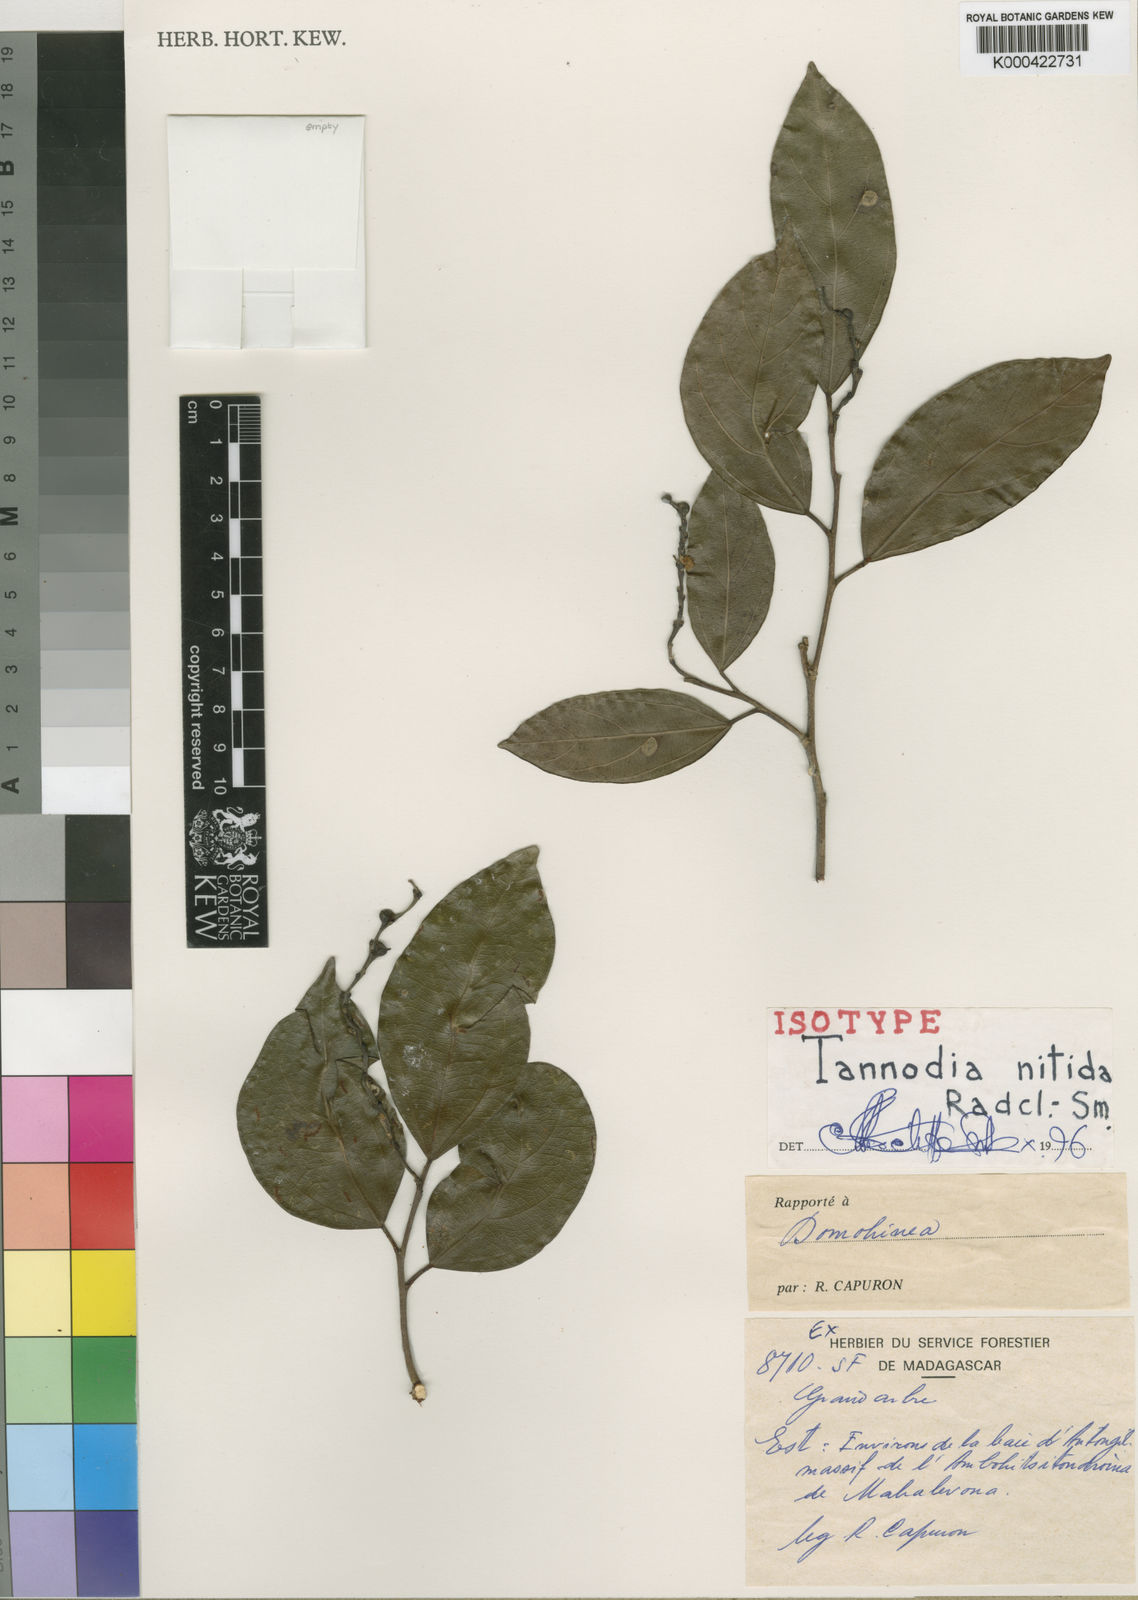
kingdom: Plantae
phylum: Tracheophyta
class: Magnoliopsida
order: Malpighiales
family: Euphorbiaceae
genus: Tannodia
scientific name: Tannodia nitida
